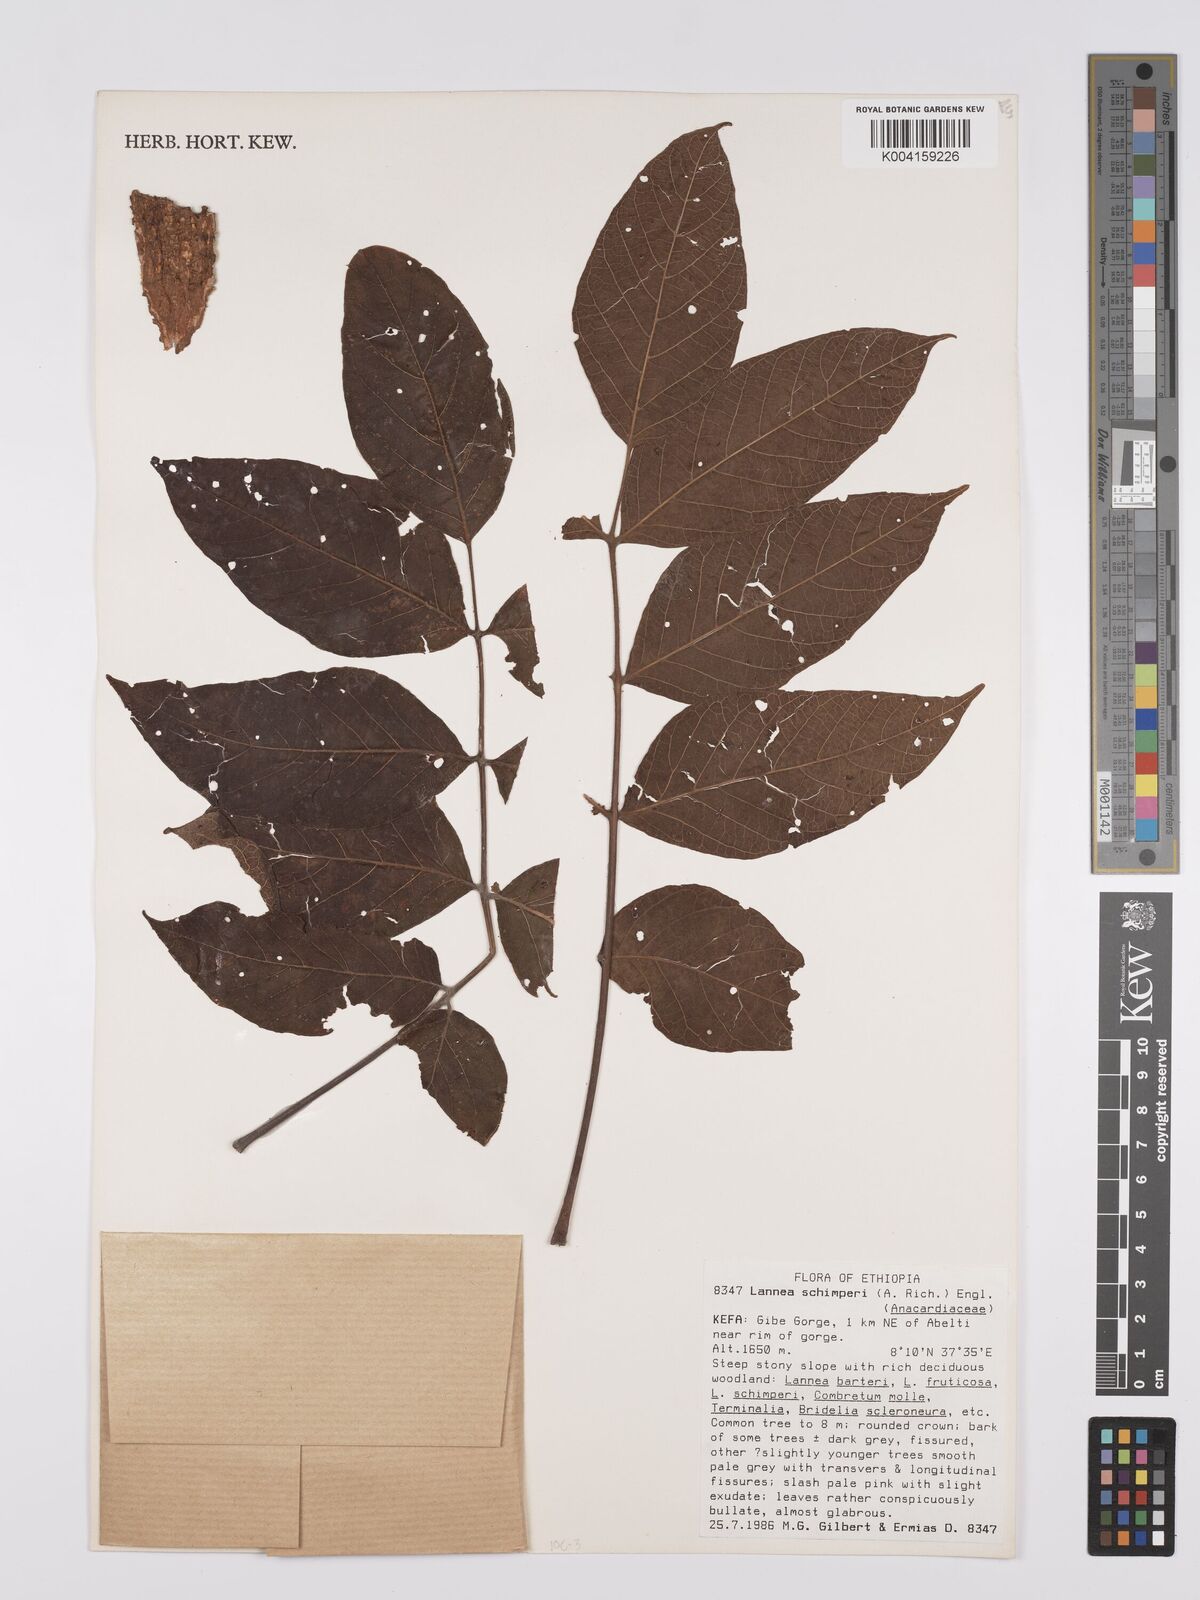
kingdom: Plantae
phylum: Tracheophyta
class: Magnoliopsida
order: Sapindales
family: Anacardiaceae
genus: Lannea
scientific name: Lannea schimperi
